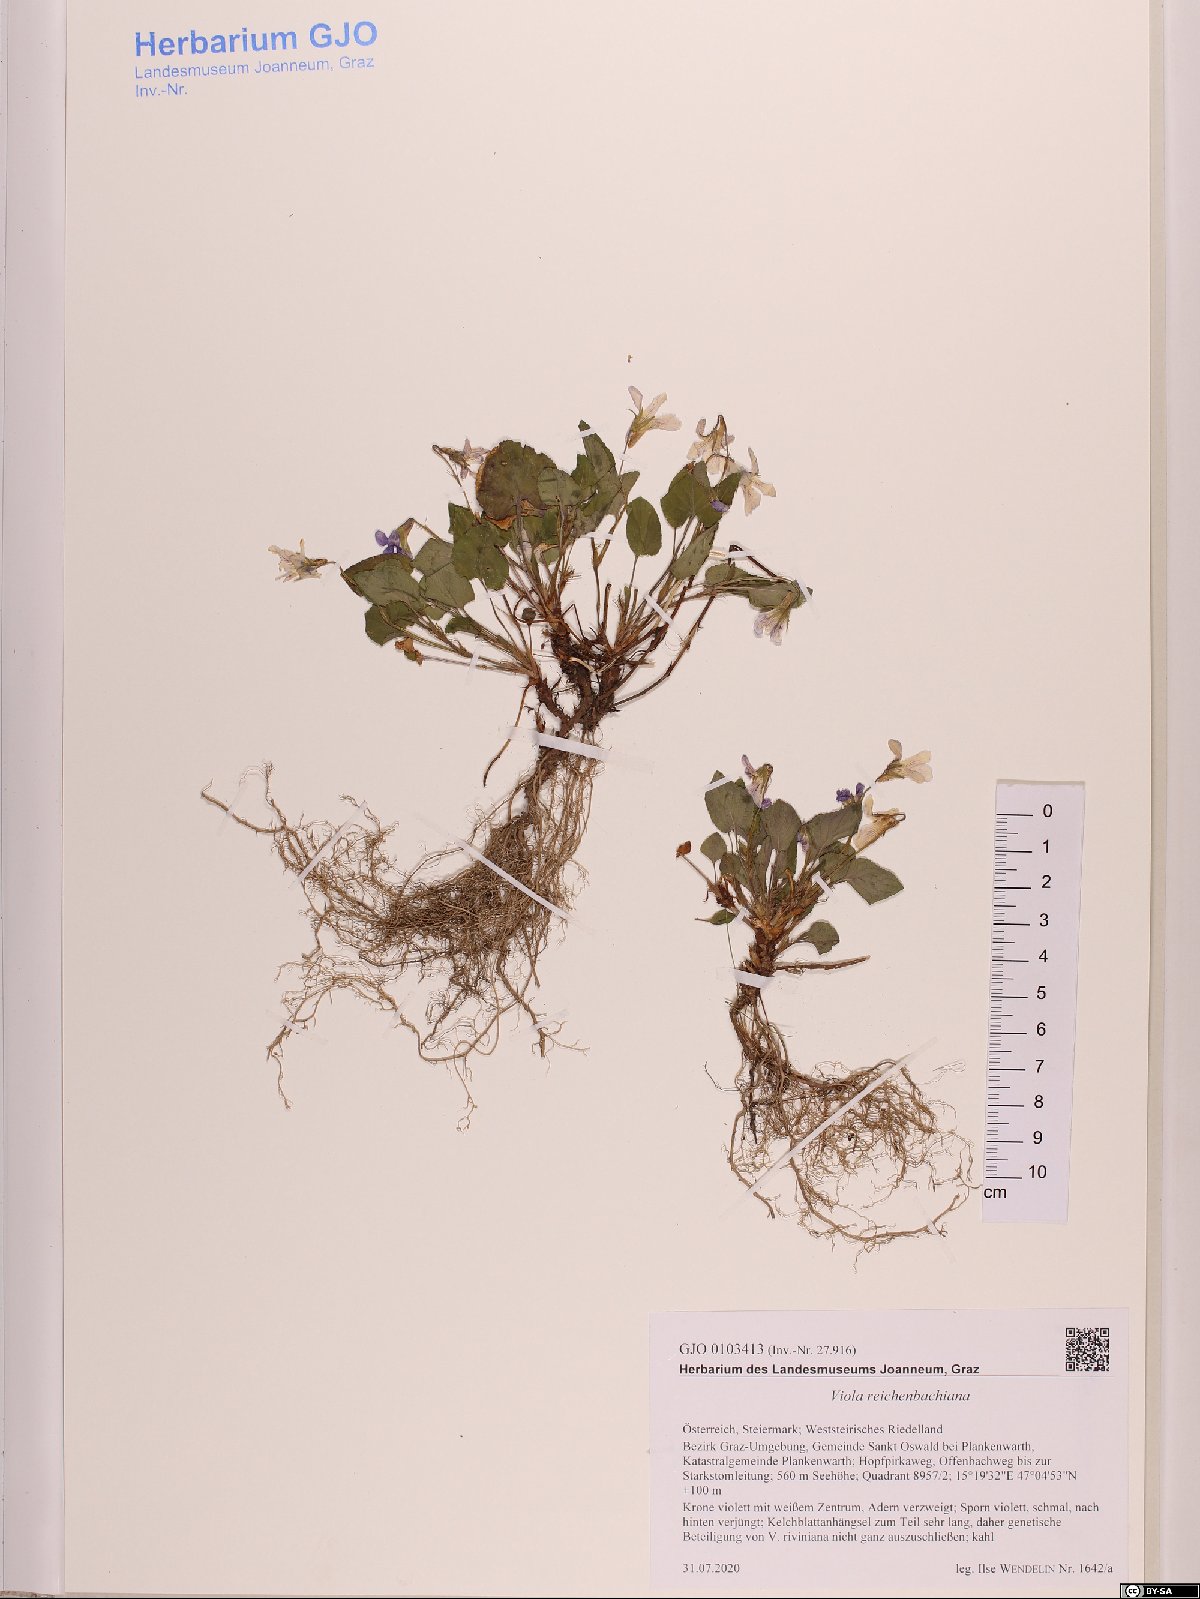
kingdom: Plantae
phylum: Tracheophyta
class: Magnoliopsida
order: Malpighiales
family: Violaceae
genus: Viola
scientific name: Viola reichenbachiana
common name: Early dog-violet
